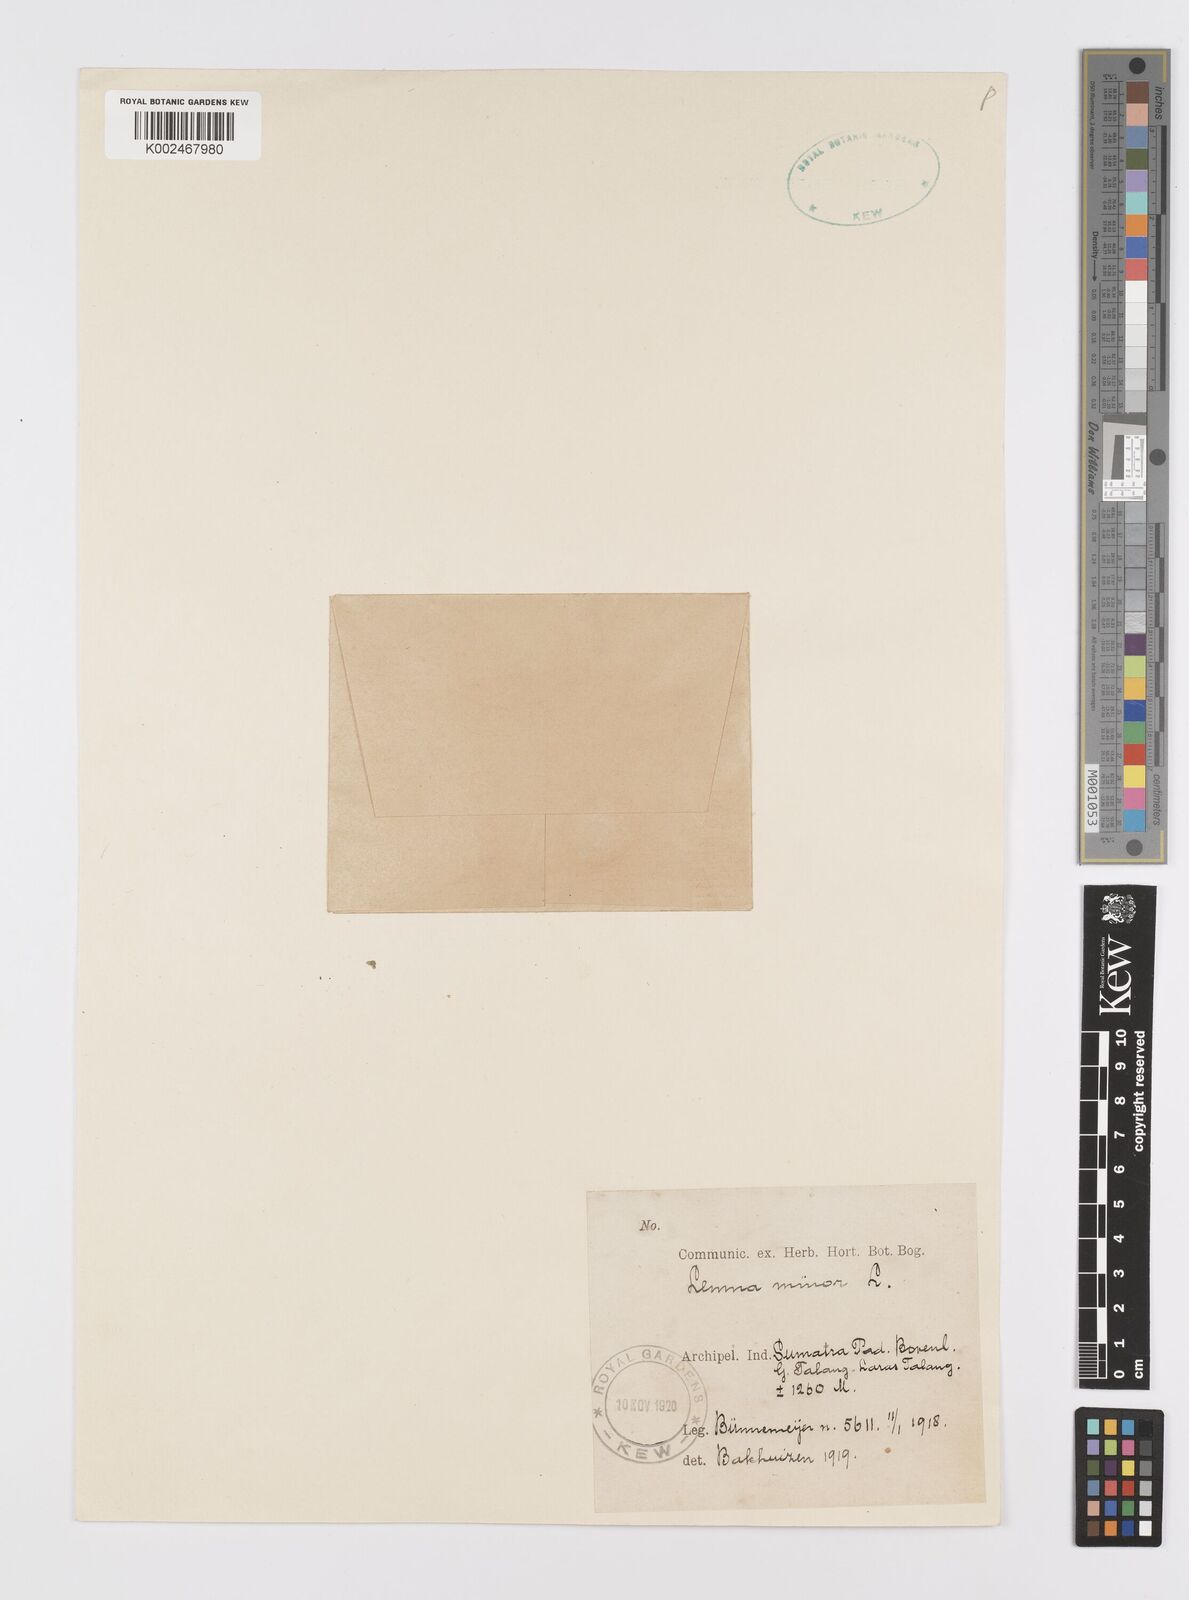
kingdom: Plantae
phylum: Tracheophyta
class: Liliopsida
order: Alismatales
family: Araceae
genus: Lemna
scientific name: Lemna minor
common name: Common duckweed
